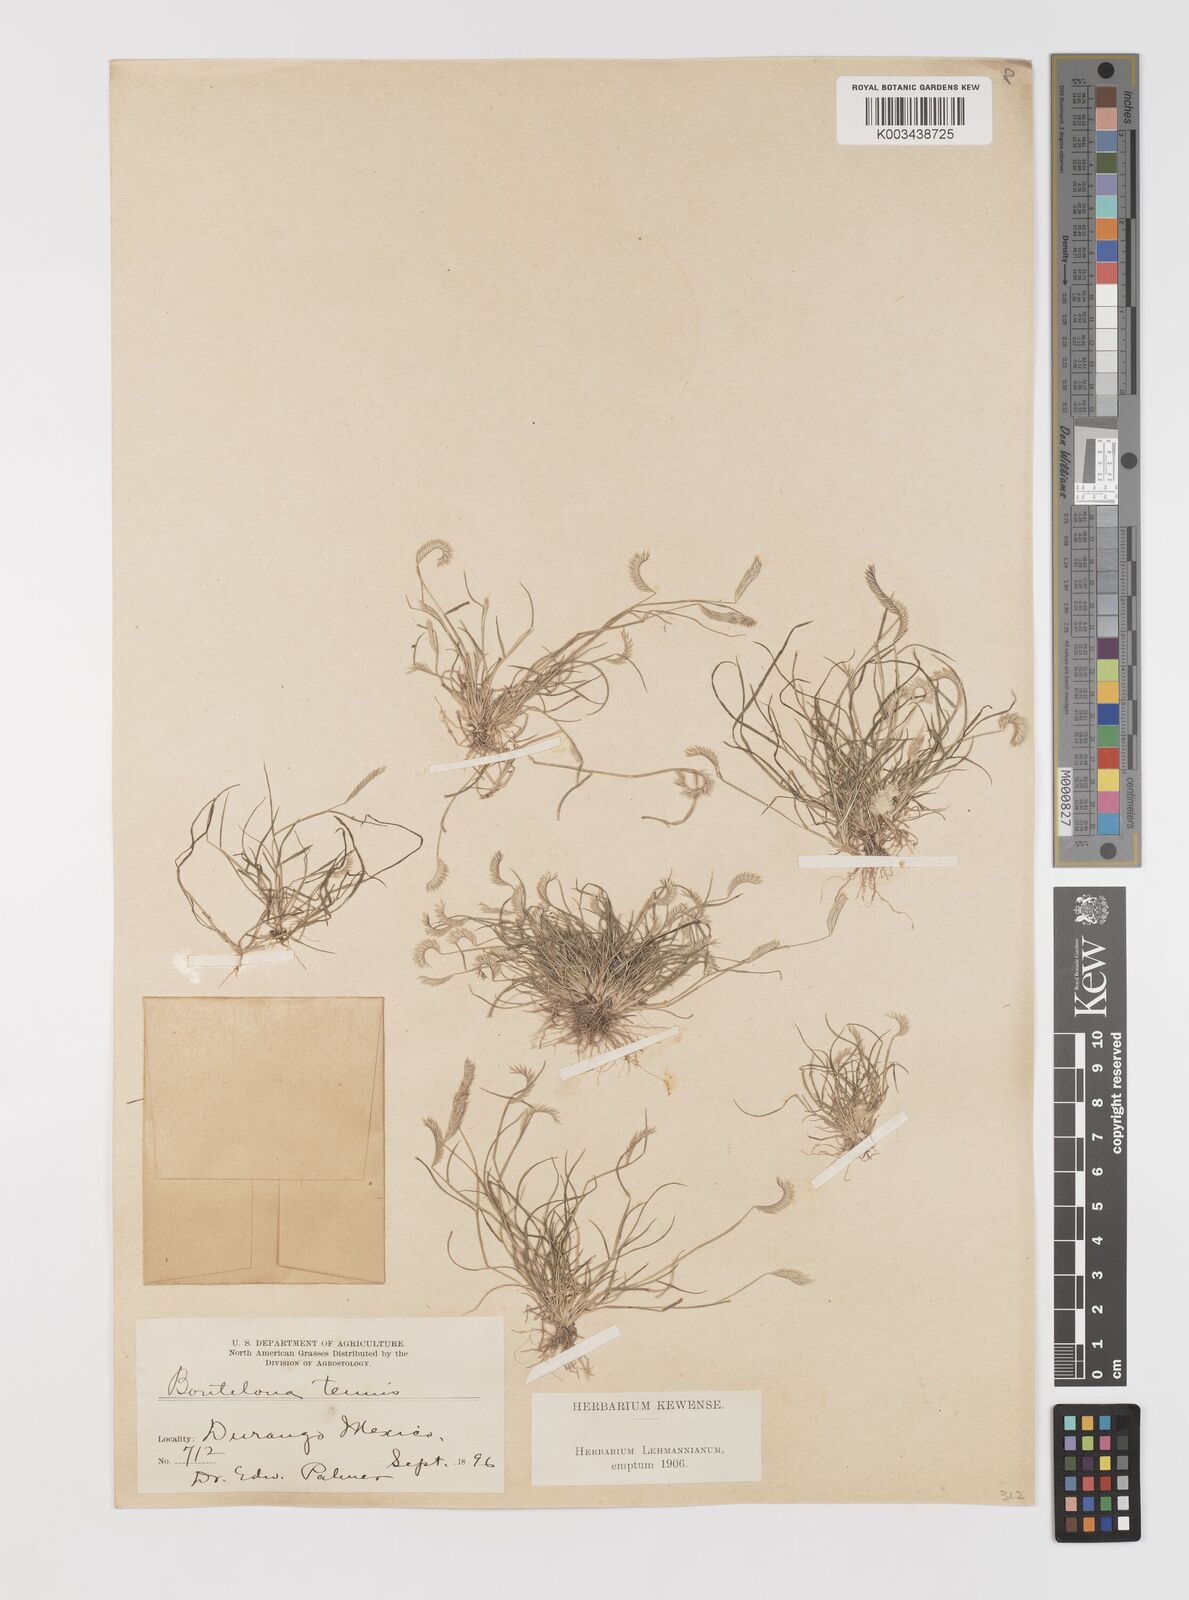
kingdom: Plantae
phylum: Tracheophyta
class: Liliopsida
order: Poales
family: Poaceae
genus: Bouteloua
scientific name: Bouteloua simplex
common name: Mat grama
